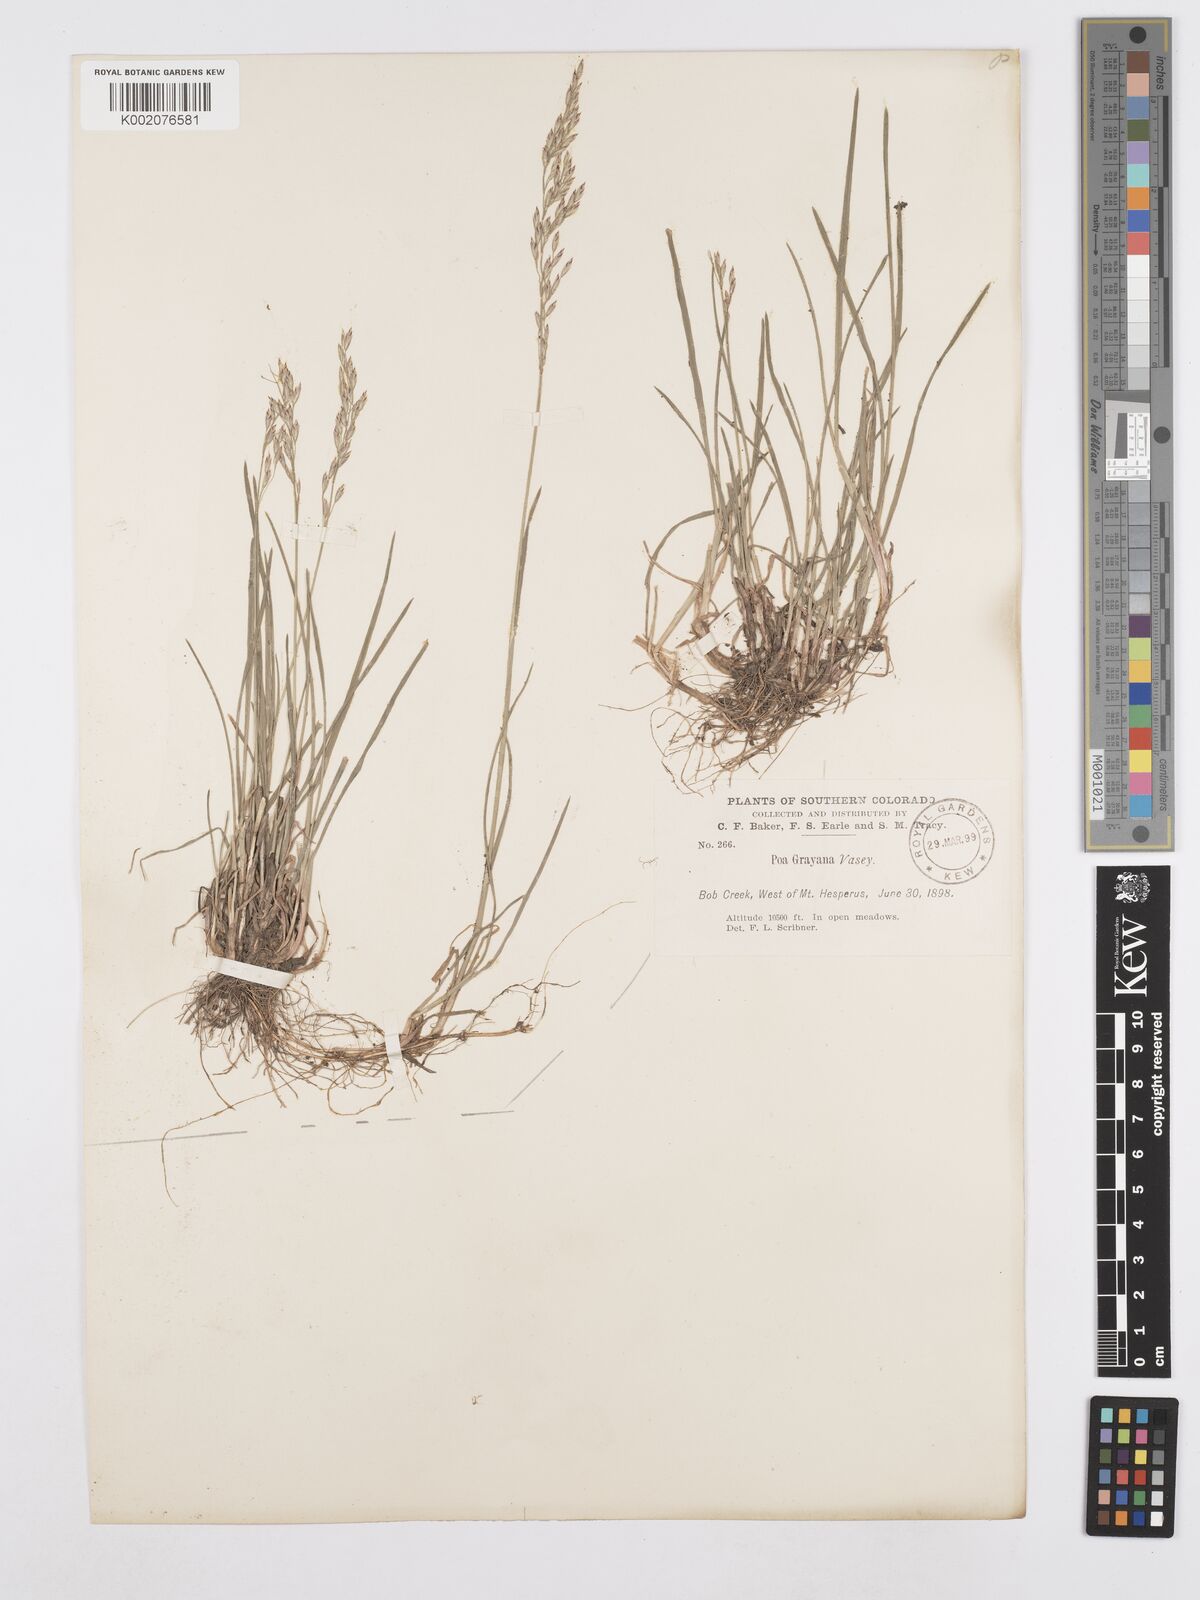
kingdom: Plantae
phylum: Tracheophyta
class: Liliopsida
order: Poales
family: Poaceae
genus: Poa
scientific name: Poa arctica
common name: Arctic bluegrass
